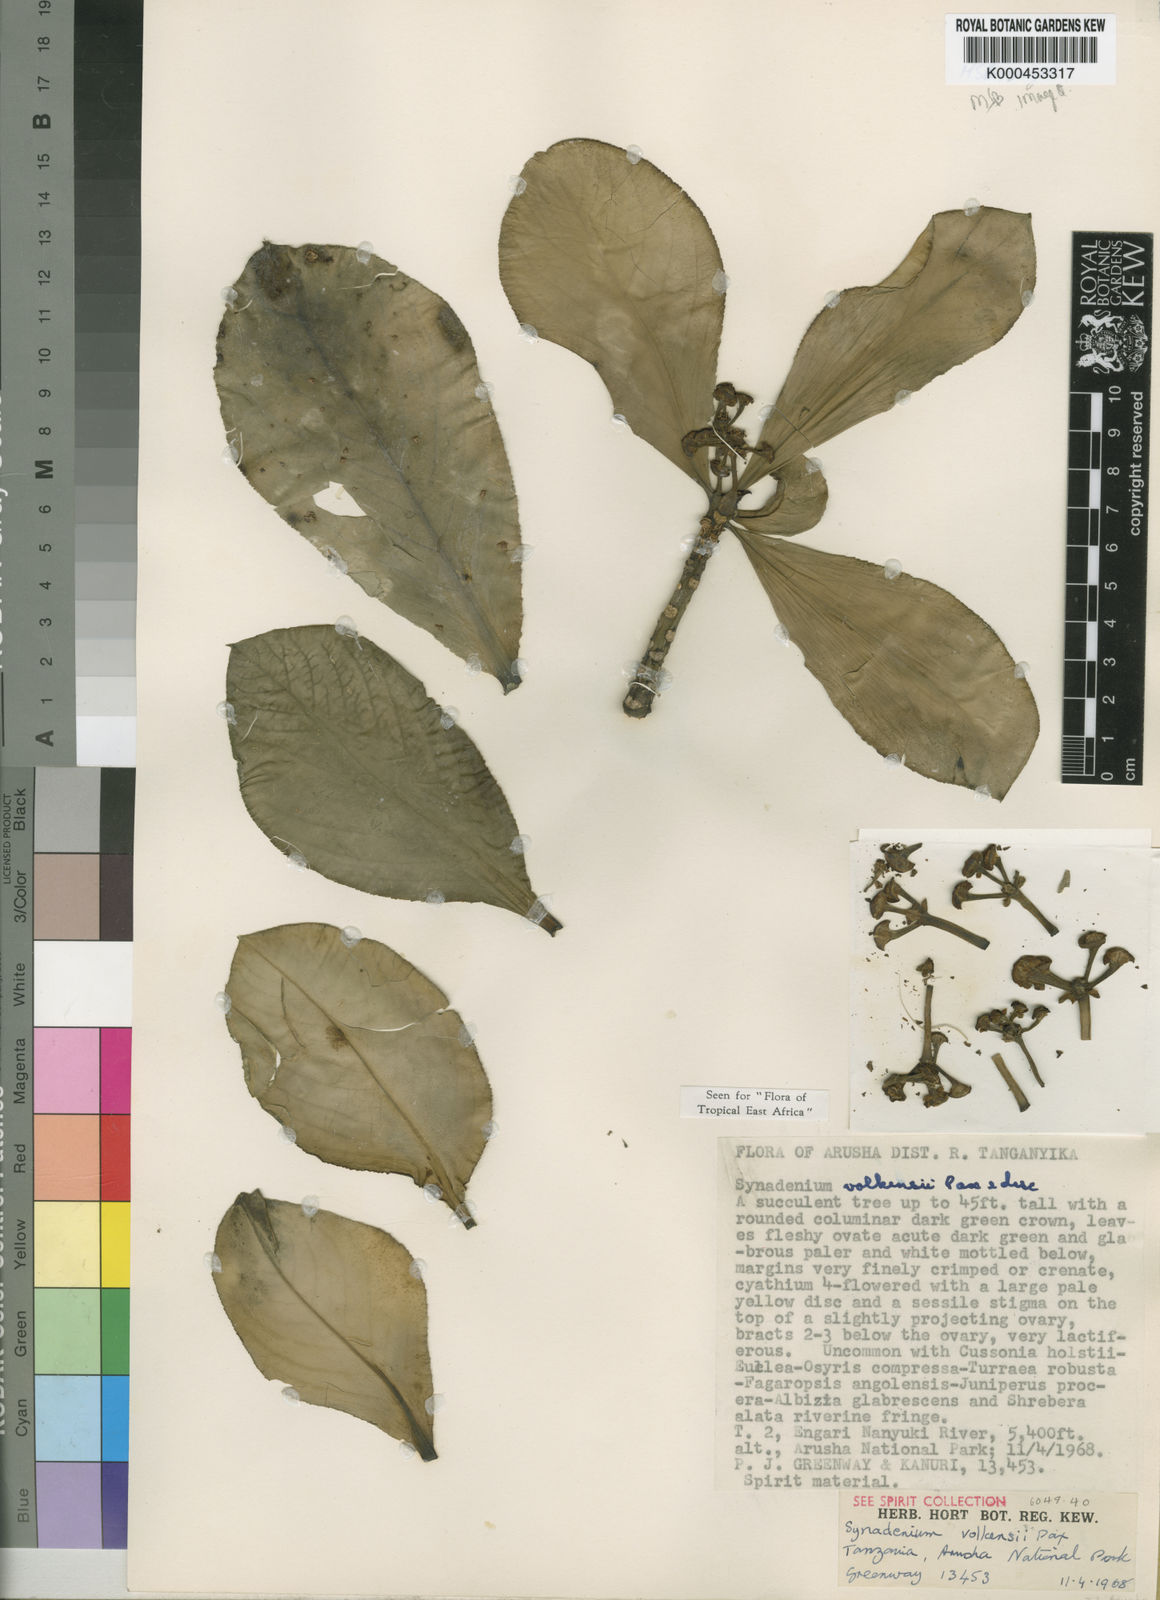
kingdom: Plantae
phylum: Tracheophyta
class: Magnoliopsida
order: Malpighiales
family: Euphorbiaceae
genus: Euphorbia
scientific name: Euphorbia pseudovolkensii
